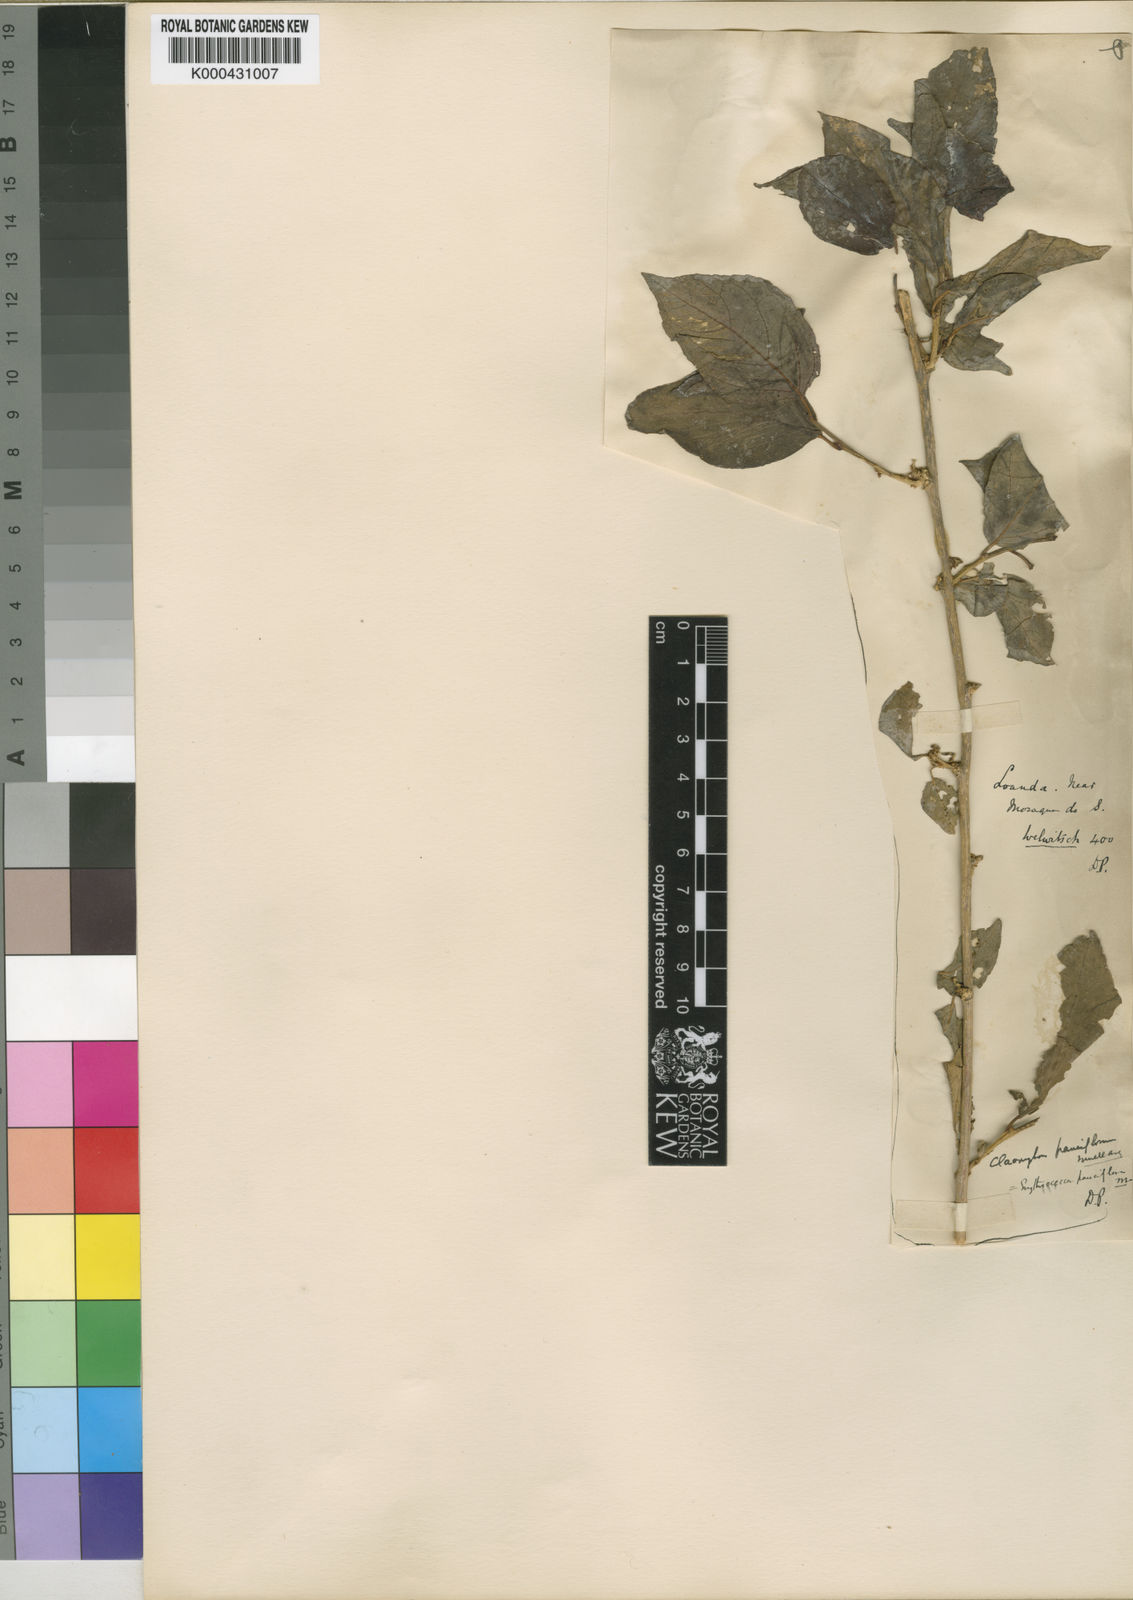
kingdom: Plantae
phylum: Tracheophyta
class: Magnoliopsida
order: Malpighiales
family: Euphorbiaceae
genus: Erythrococca
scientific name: Erythrococca
